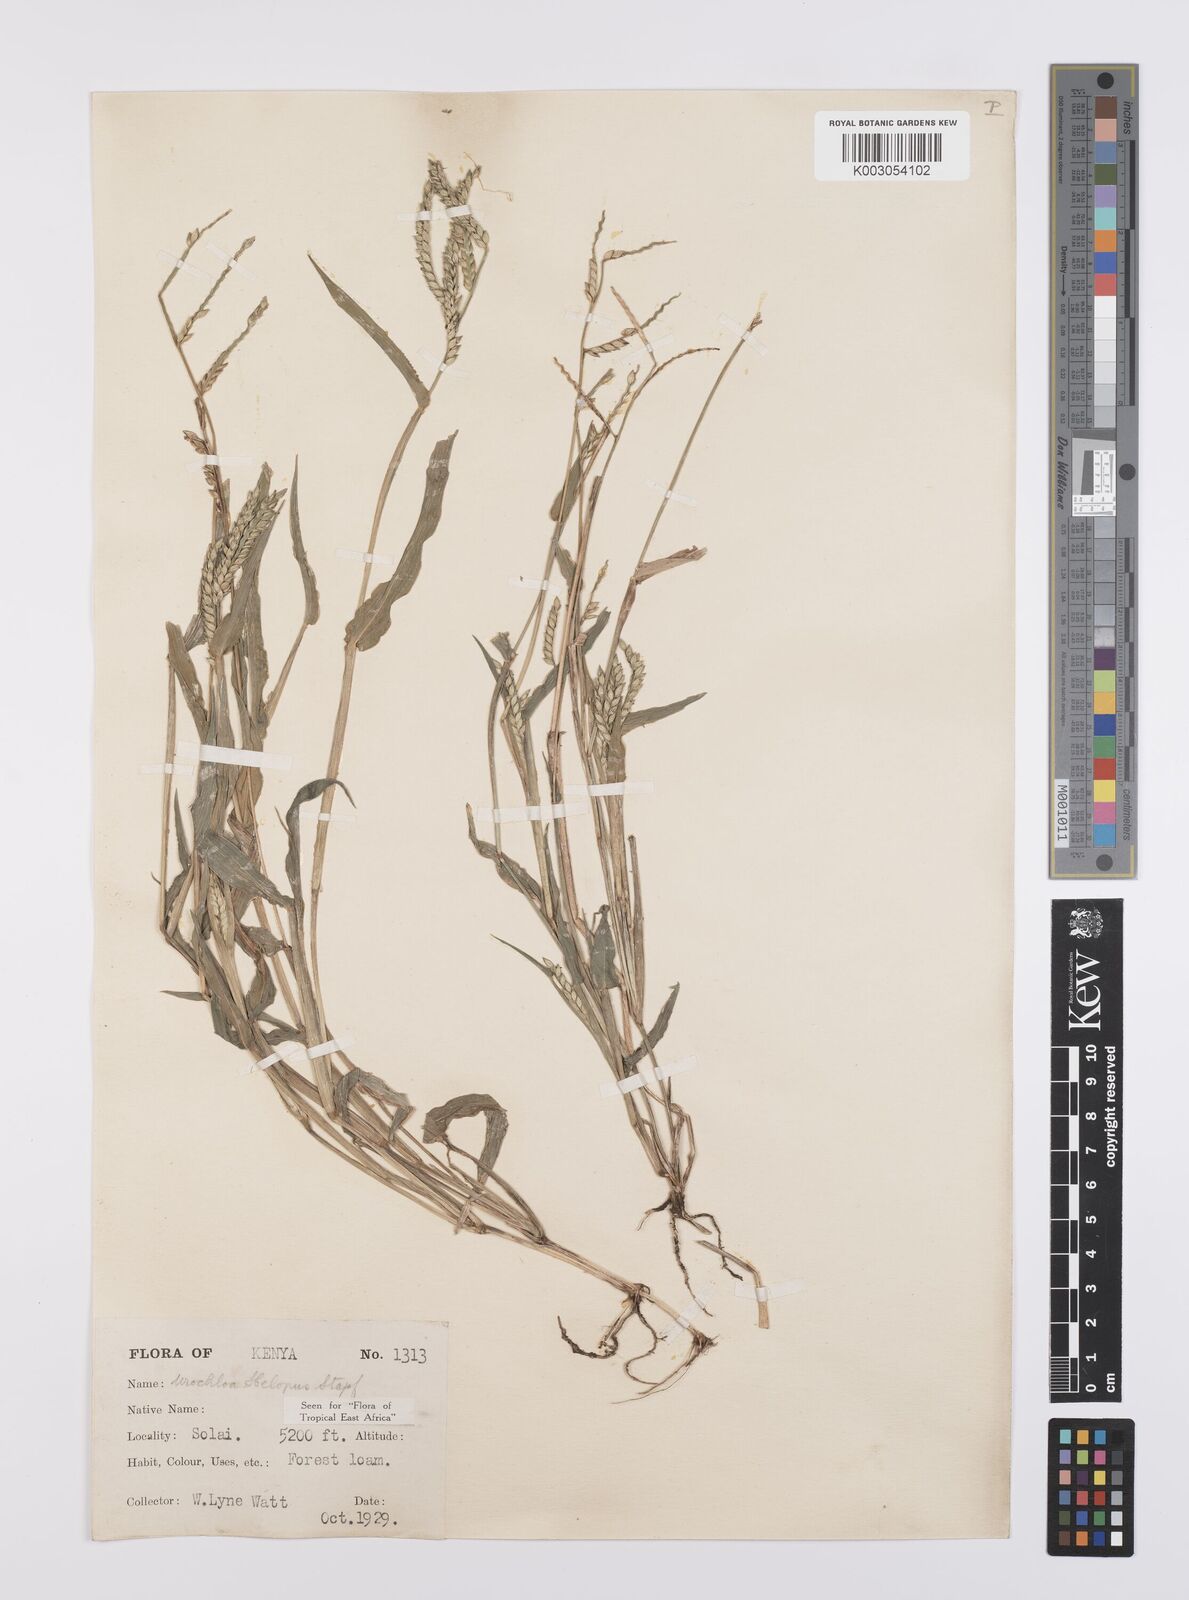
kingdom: Plantae
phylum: Tracheophyta
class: Liliopsida
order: Poales
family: Poaceae
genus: Urochloa
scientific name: Urochloa panicoides
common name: Sharp-flowered signal-grass
